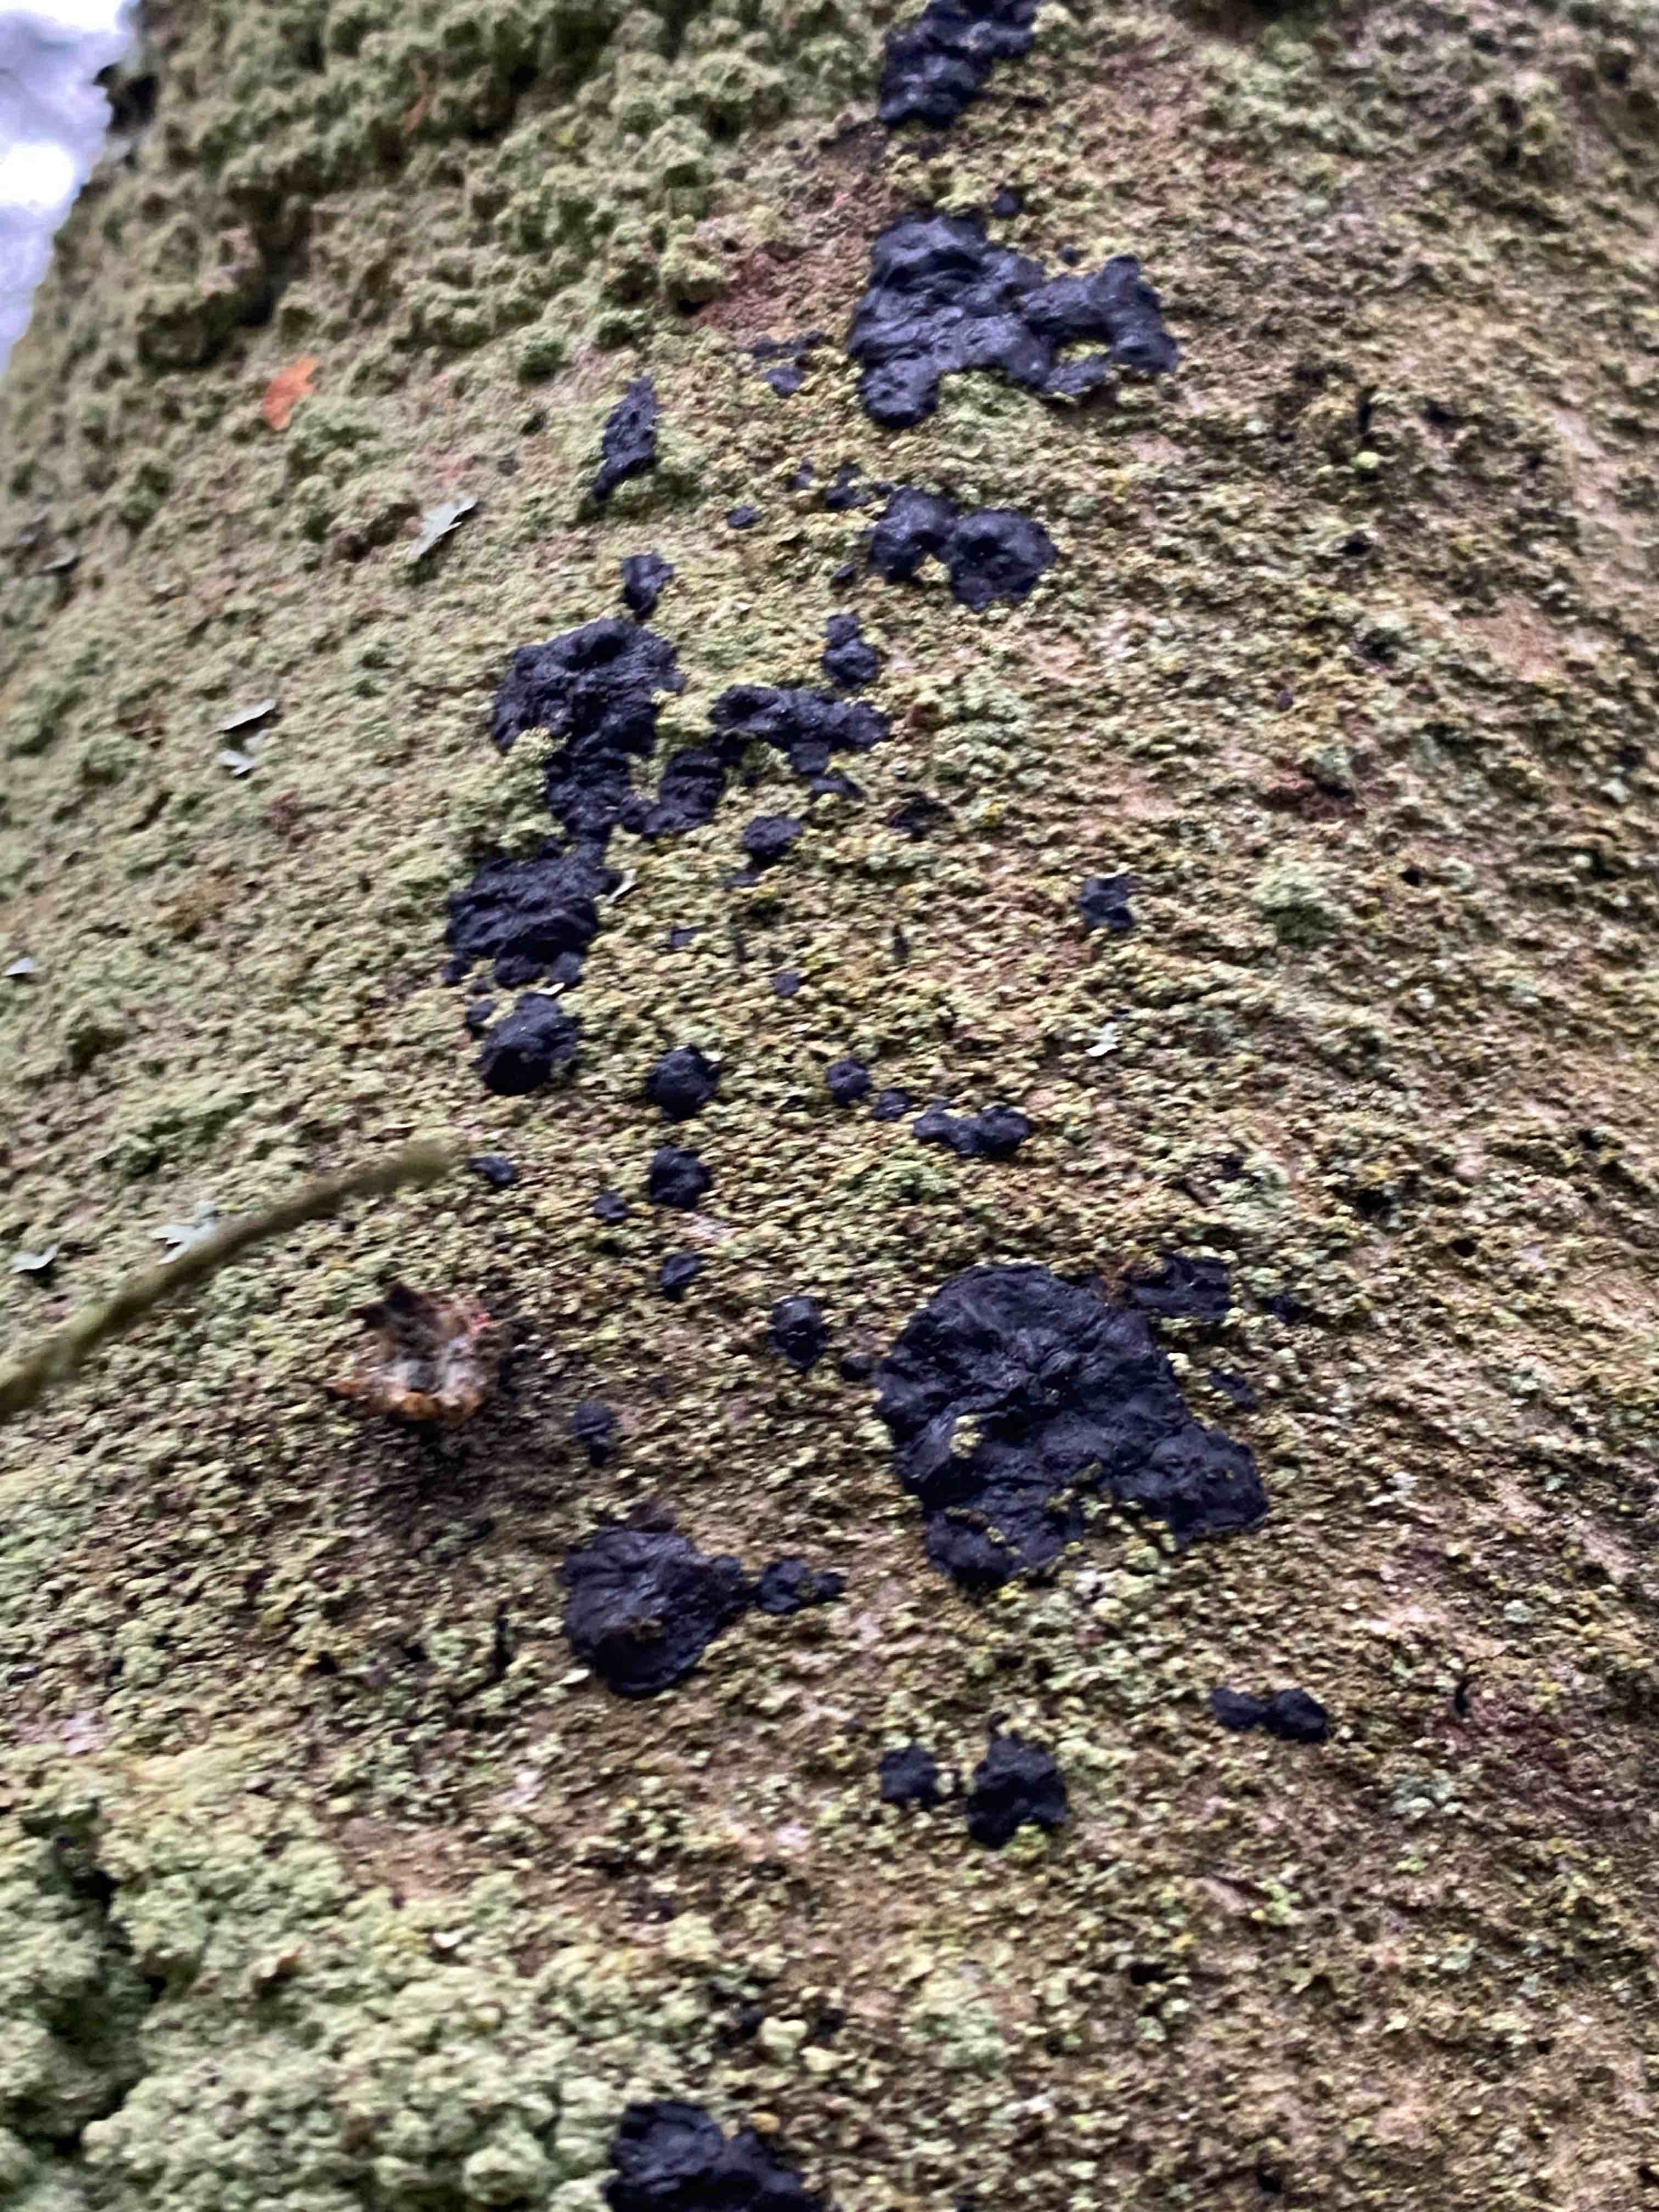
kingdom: Fungi
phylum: Basidiomycota
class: Agaricomycetes
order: Auriculariales
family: Auriculariaceae
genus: Exidia
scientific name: Exidia pithya
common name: gran-bævretop
